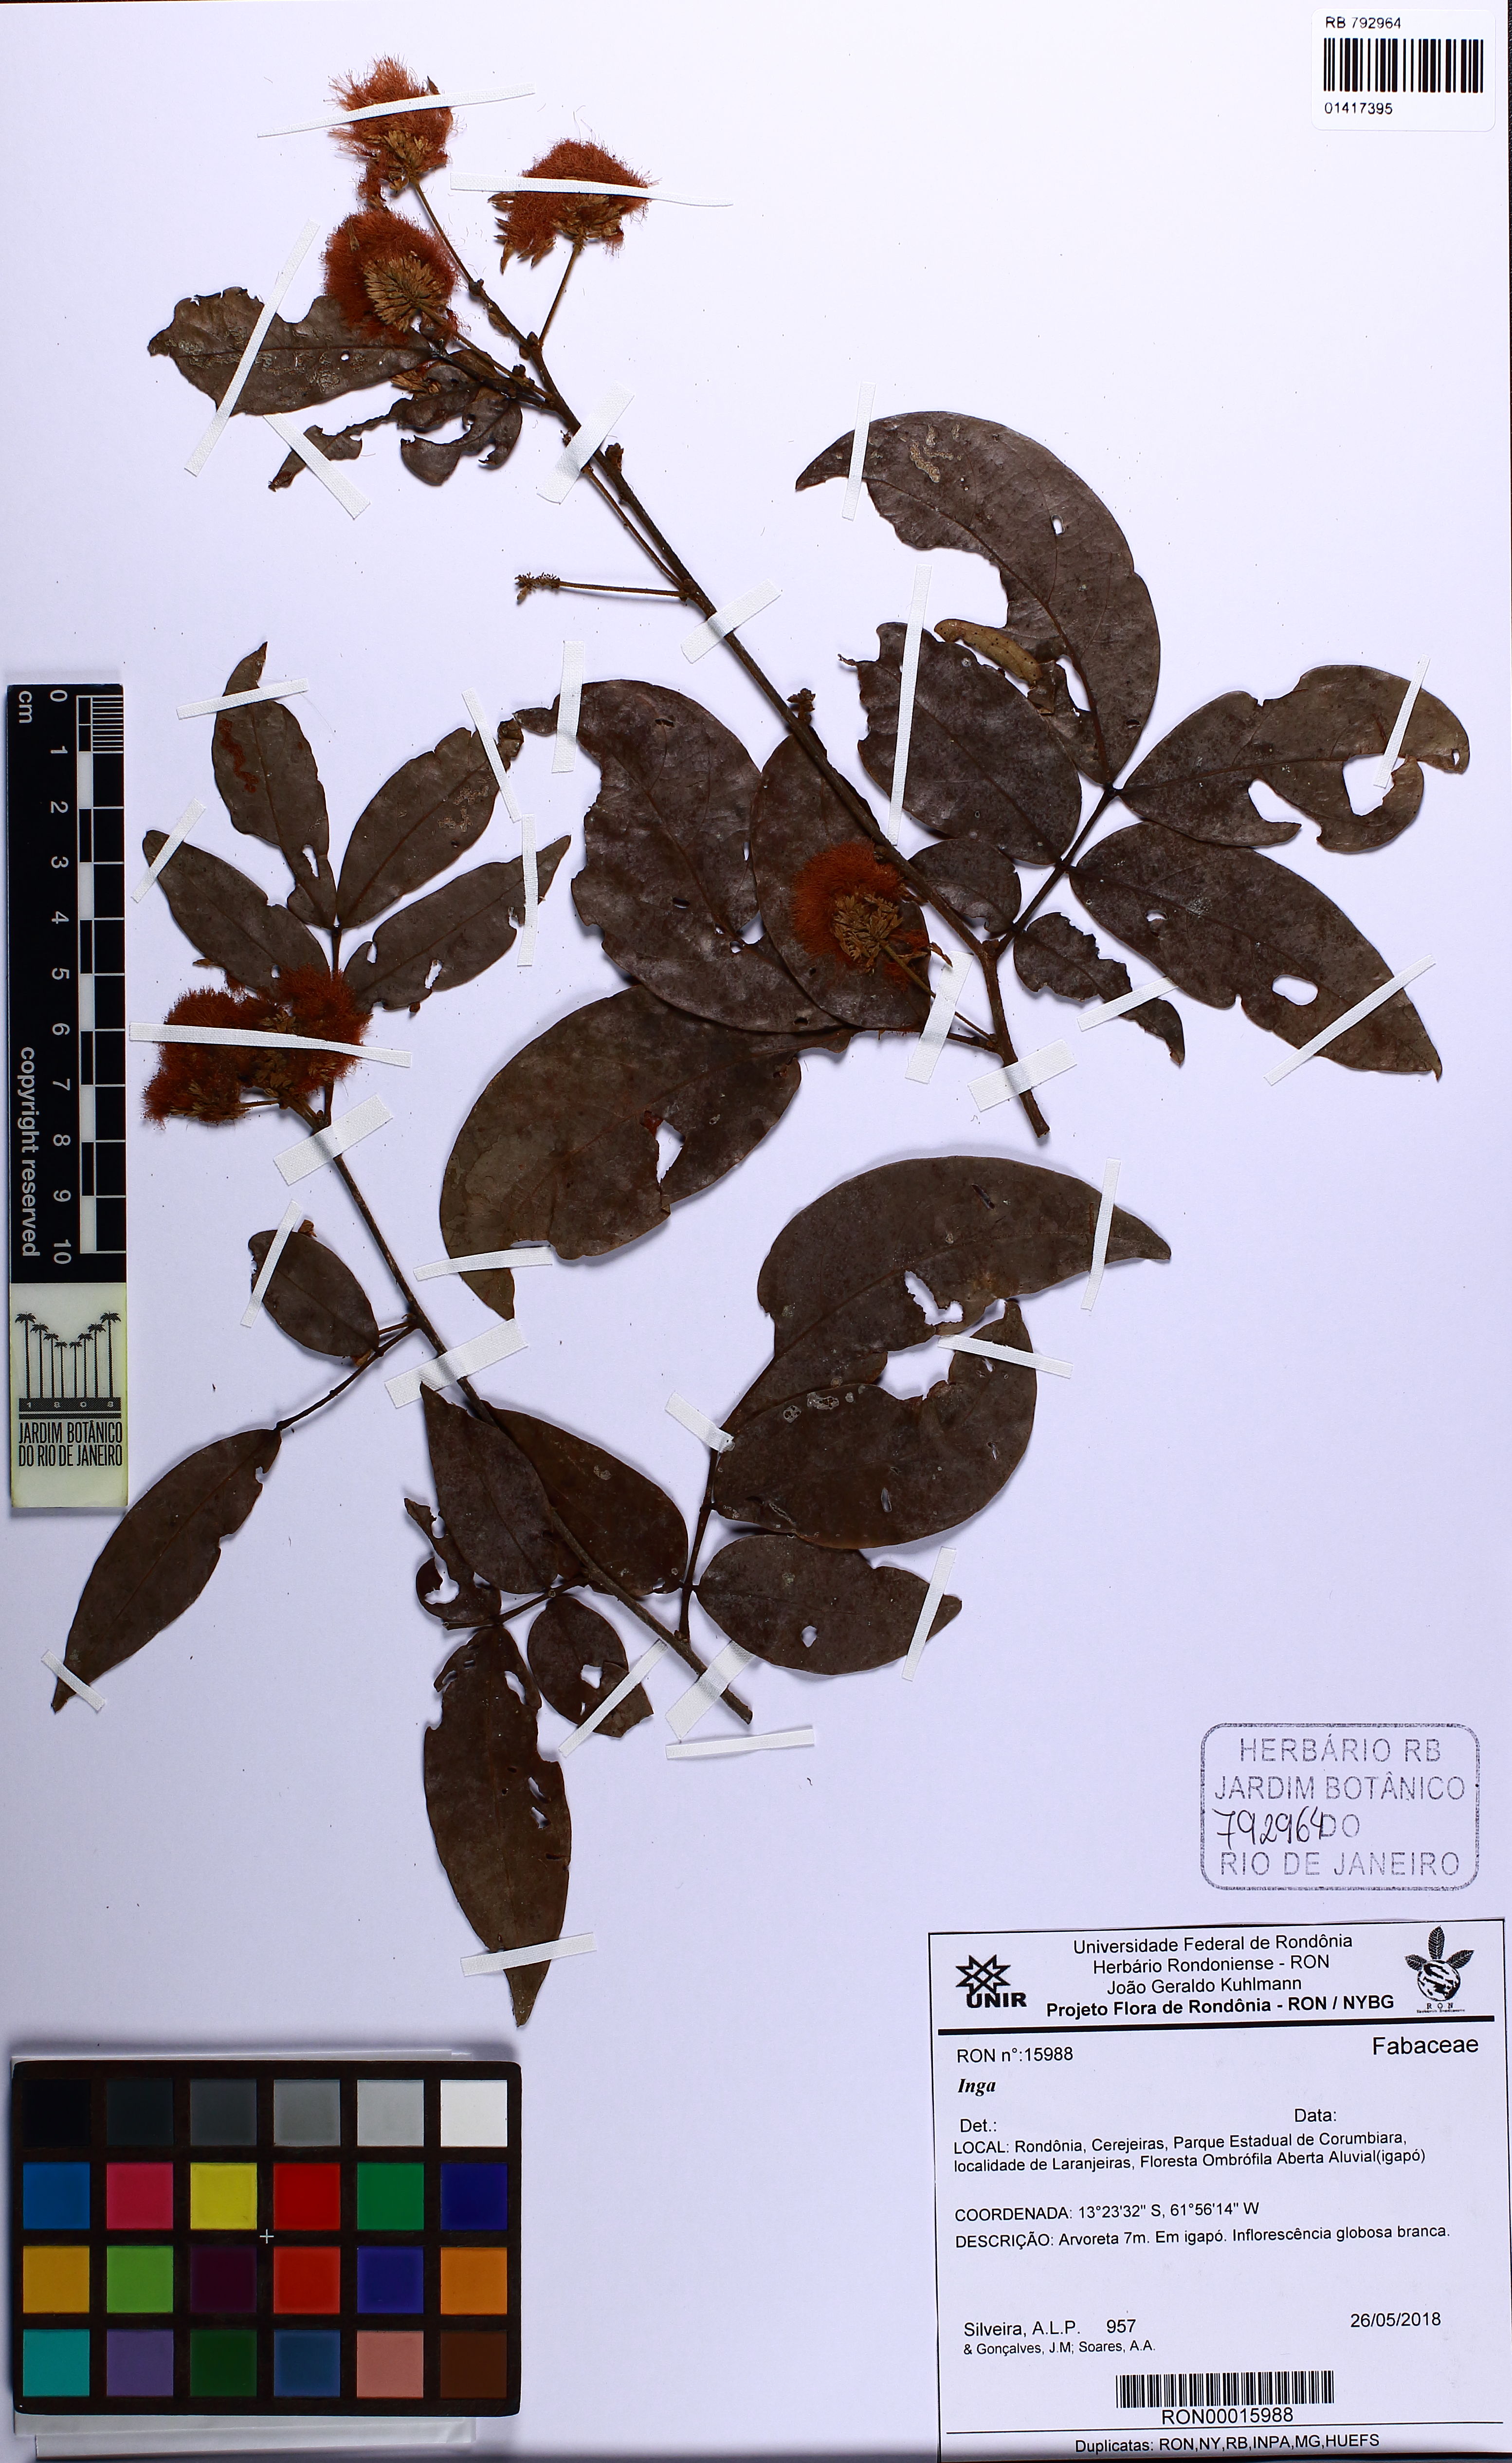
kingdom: Plantae
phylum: Tracheophyta
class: Magnoliopsida
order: Fabales
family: Fabaceae
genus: Inga
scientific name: Inga
